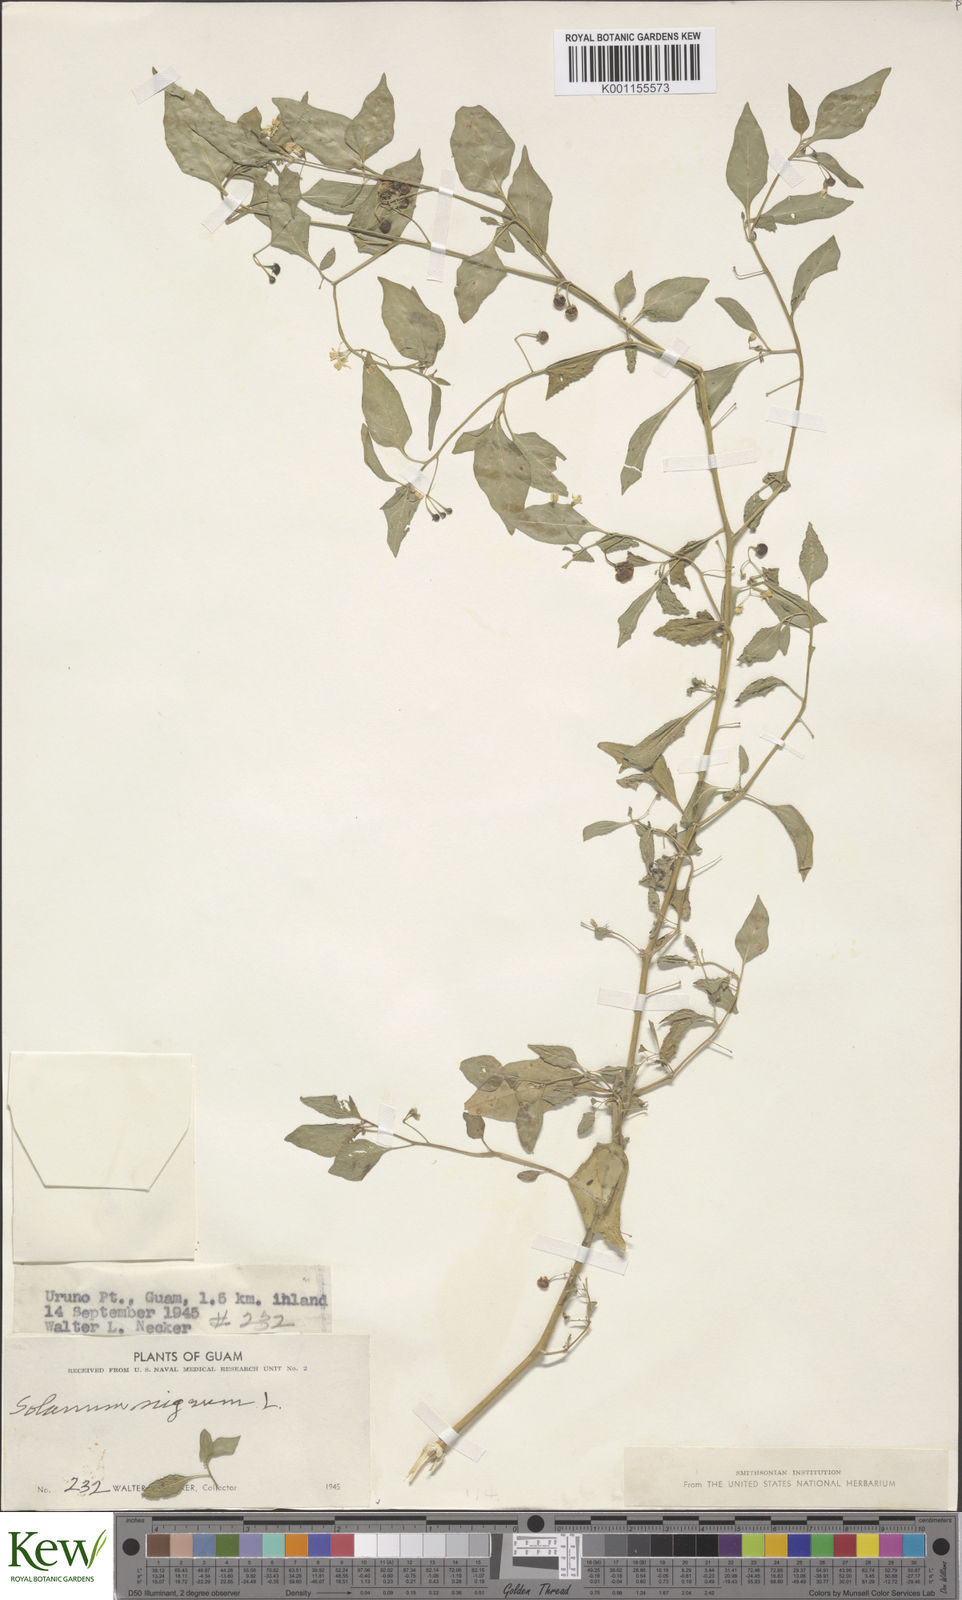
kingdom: Plantae
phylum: Tracheophyta
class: Magnoliopsida
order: Solanales
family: Solanaceae
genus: Solanum
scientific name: Solanum nigrum
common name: Black nightshade
